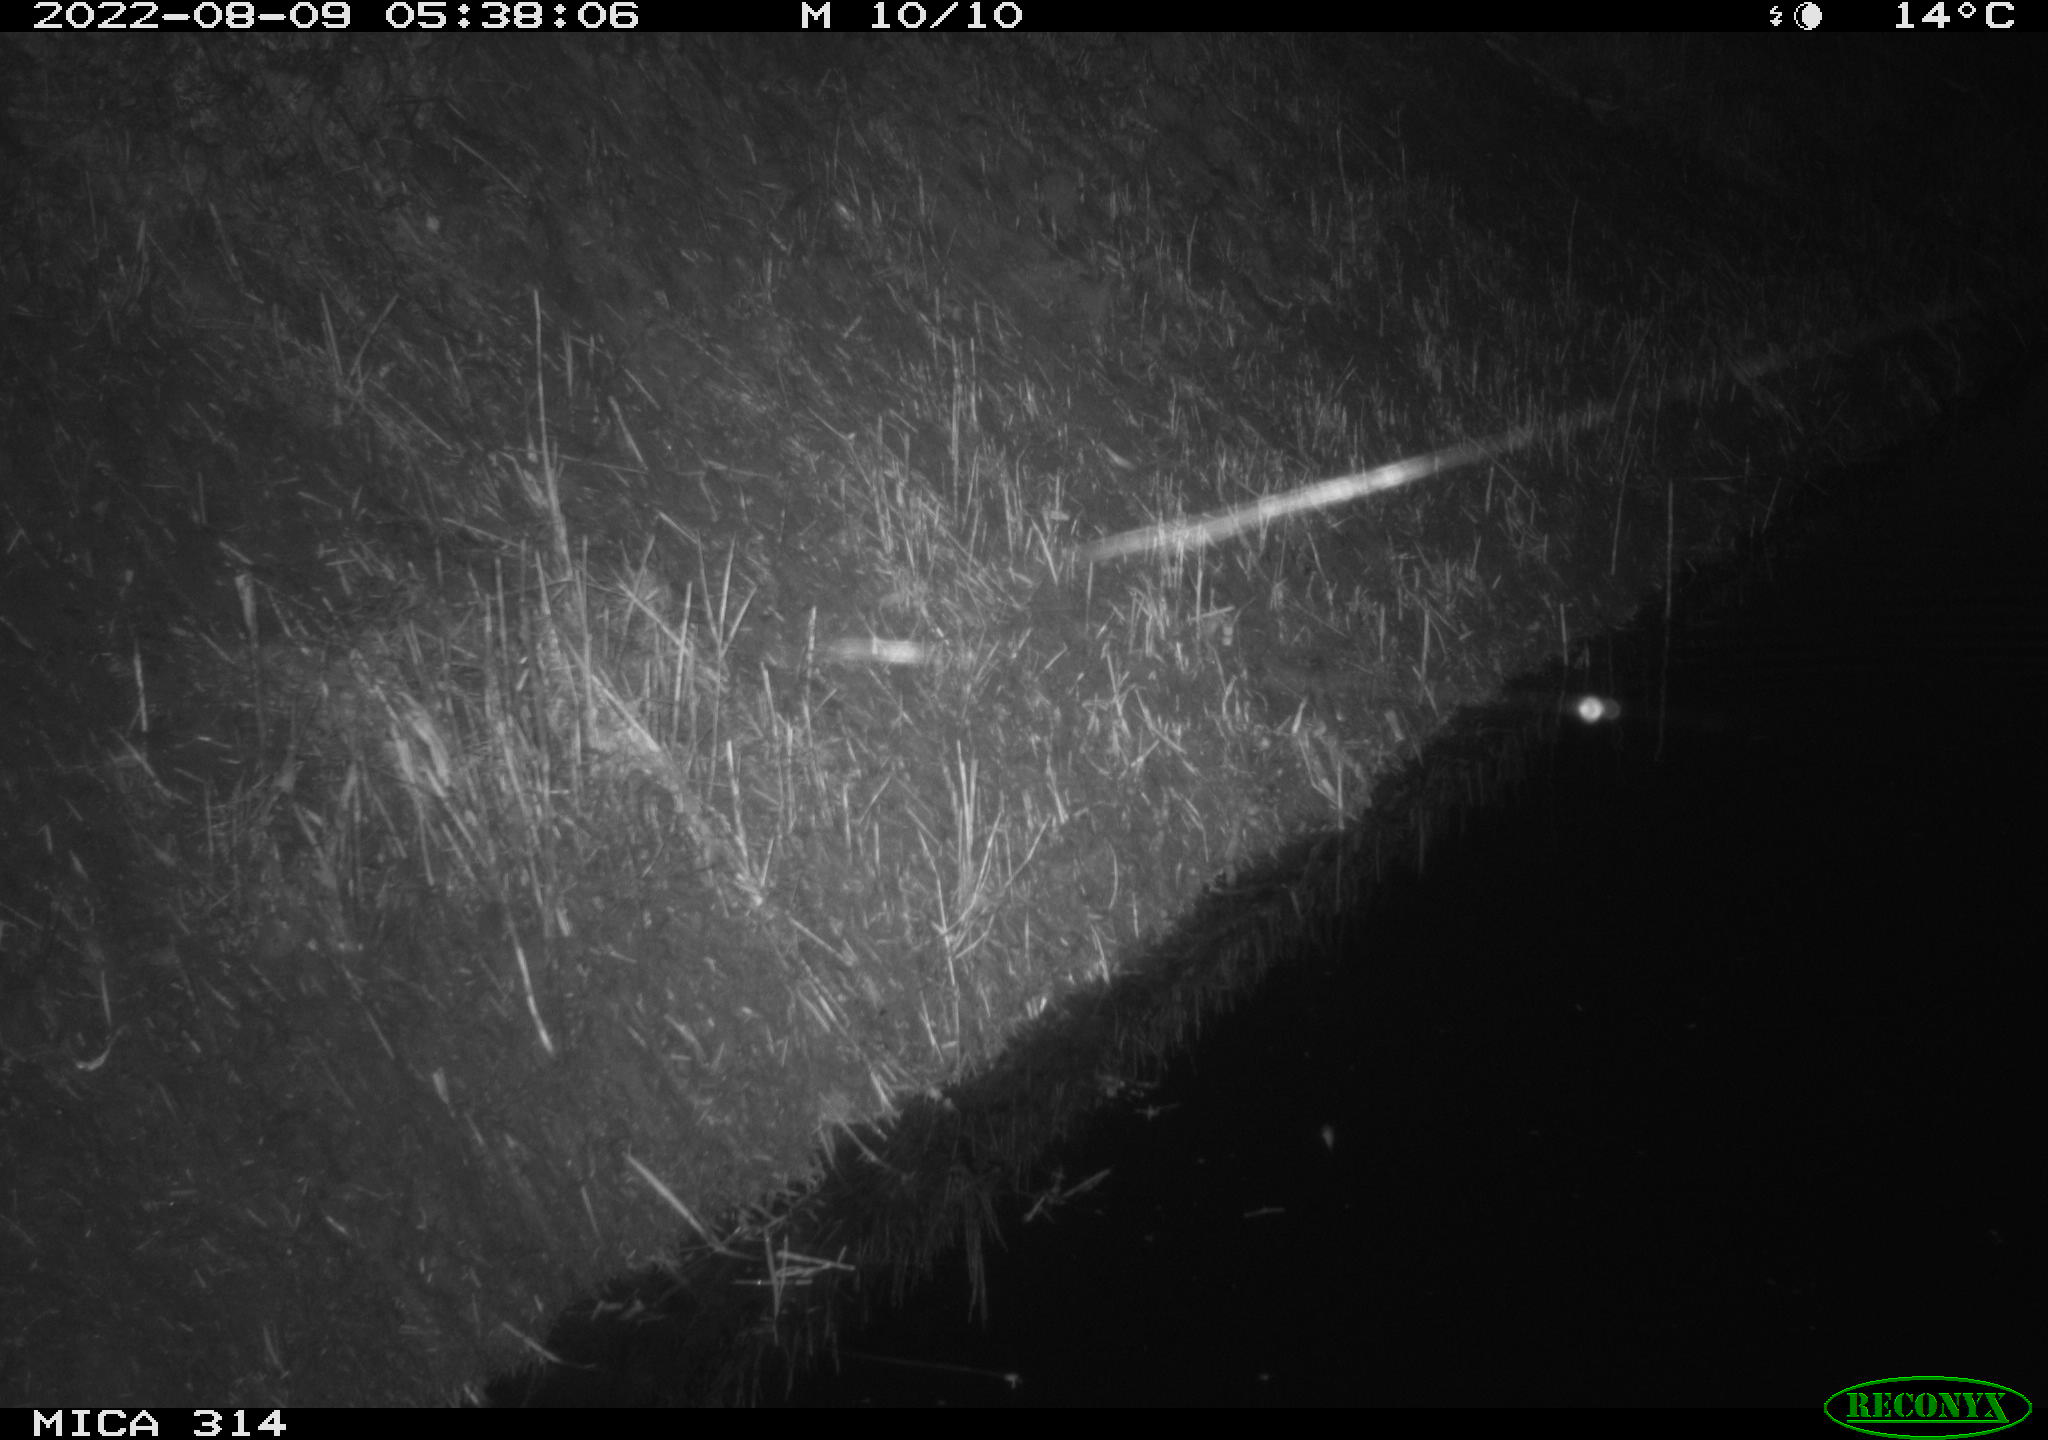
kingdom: Animalia
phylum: Chordata
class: Mammalia
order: Rodentia
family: Muridae
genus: Rattus
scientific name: Rattus norvegicus
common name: Brown rat
